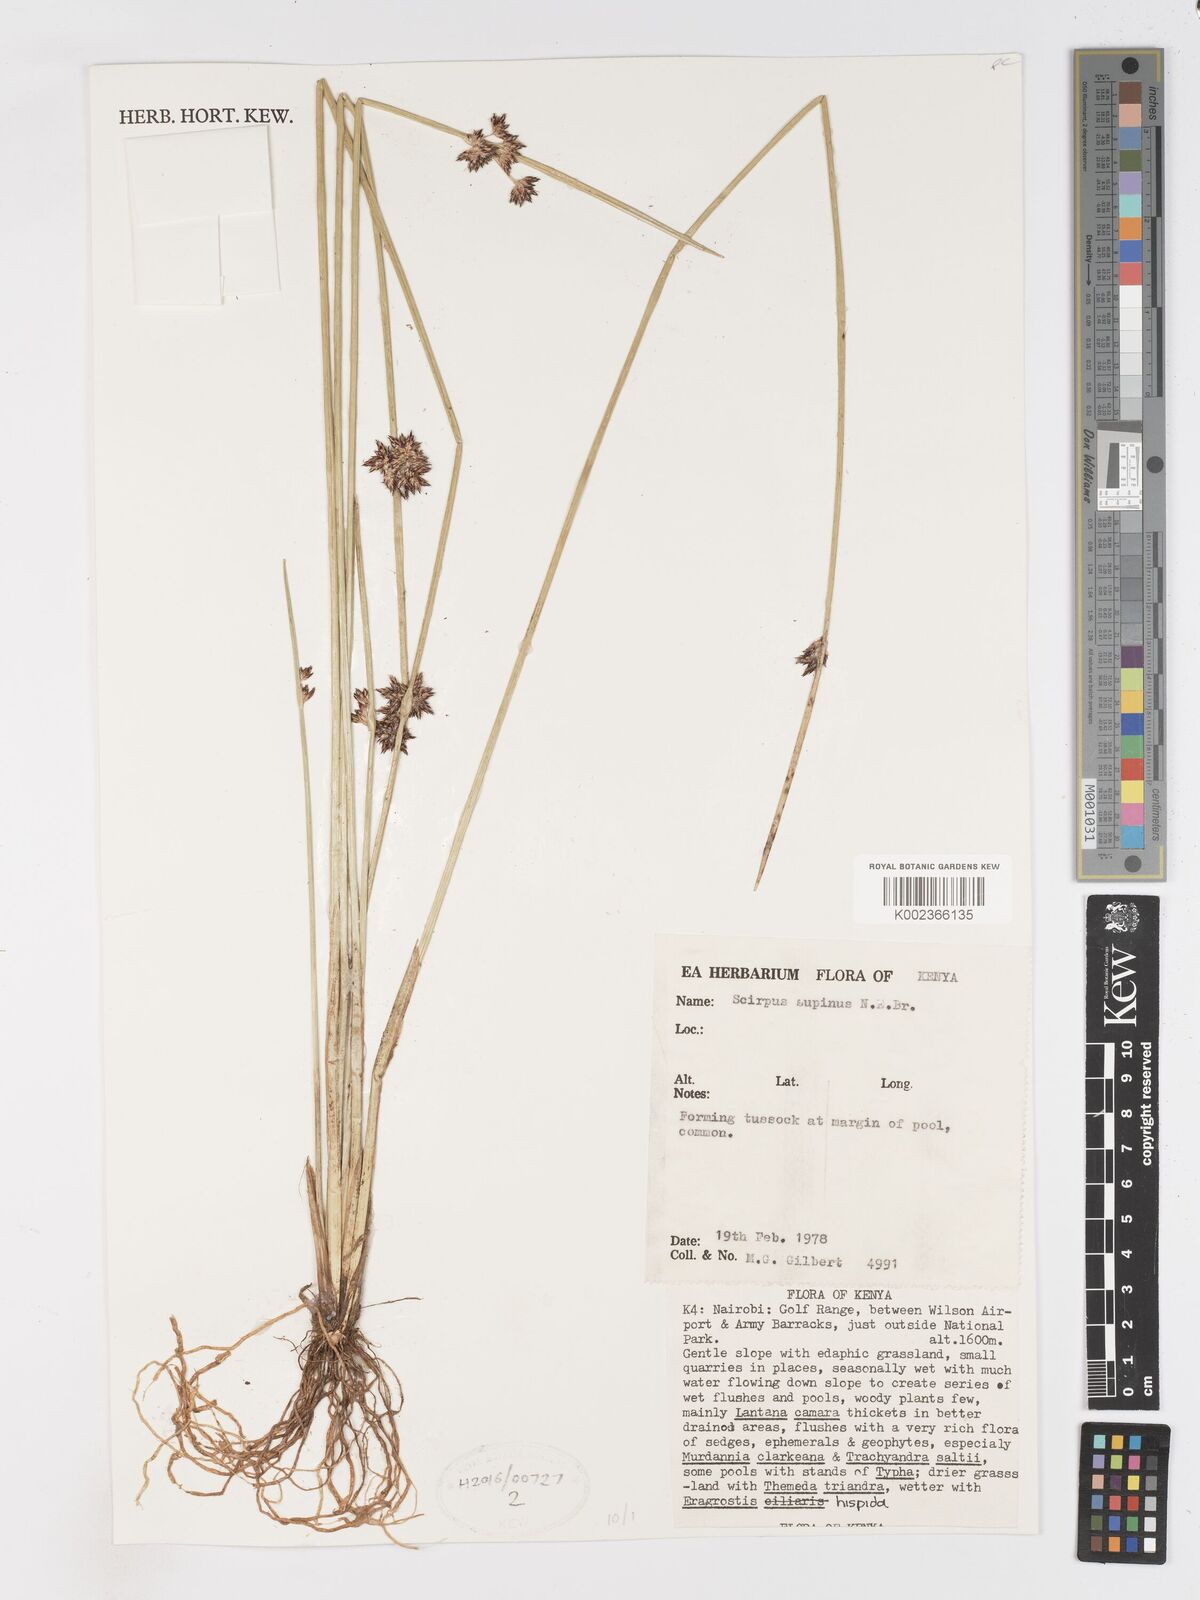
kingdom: Plantae
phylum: Tracheophyta
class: Liliopsida
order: Poales
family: Cyperaceae
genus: Schoenoplectiella
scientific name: Schoenoplectiella supina
